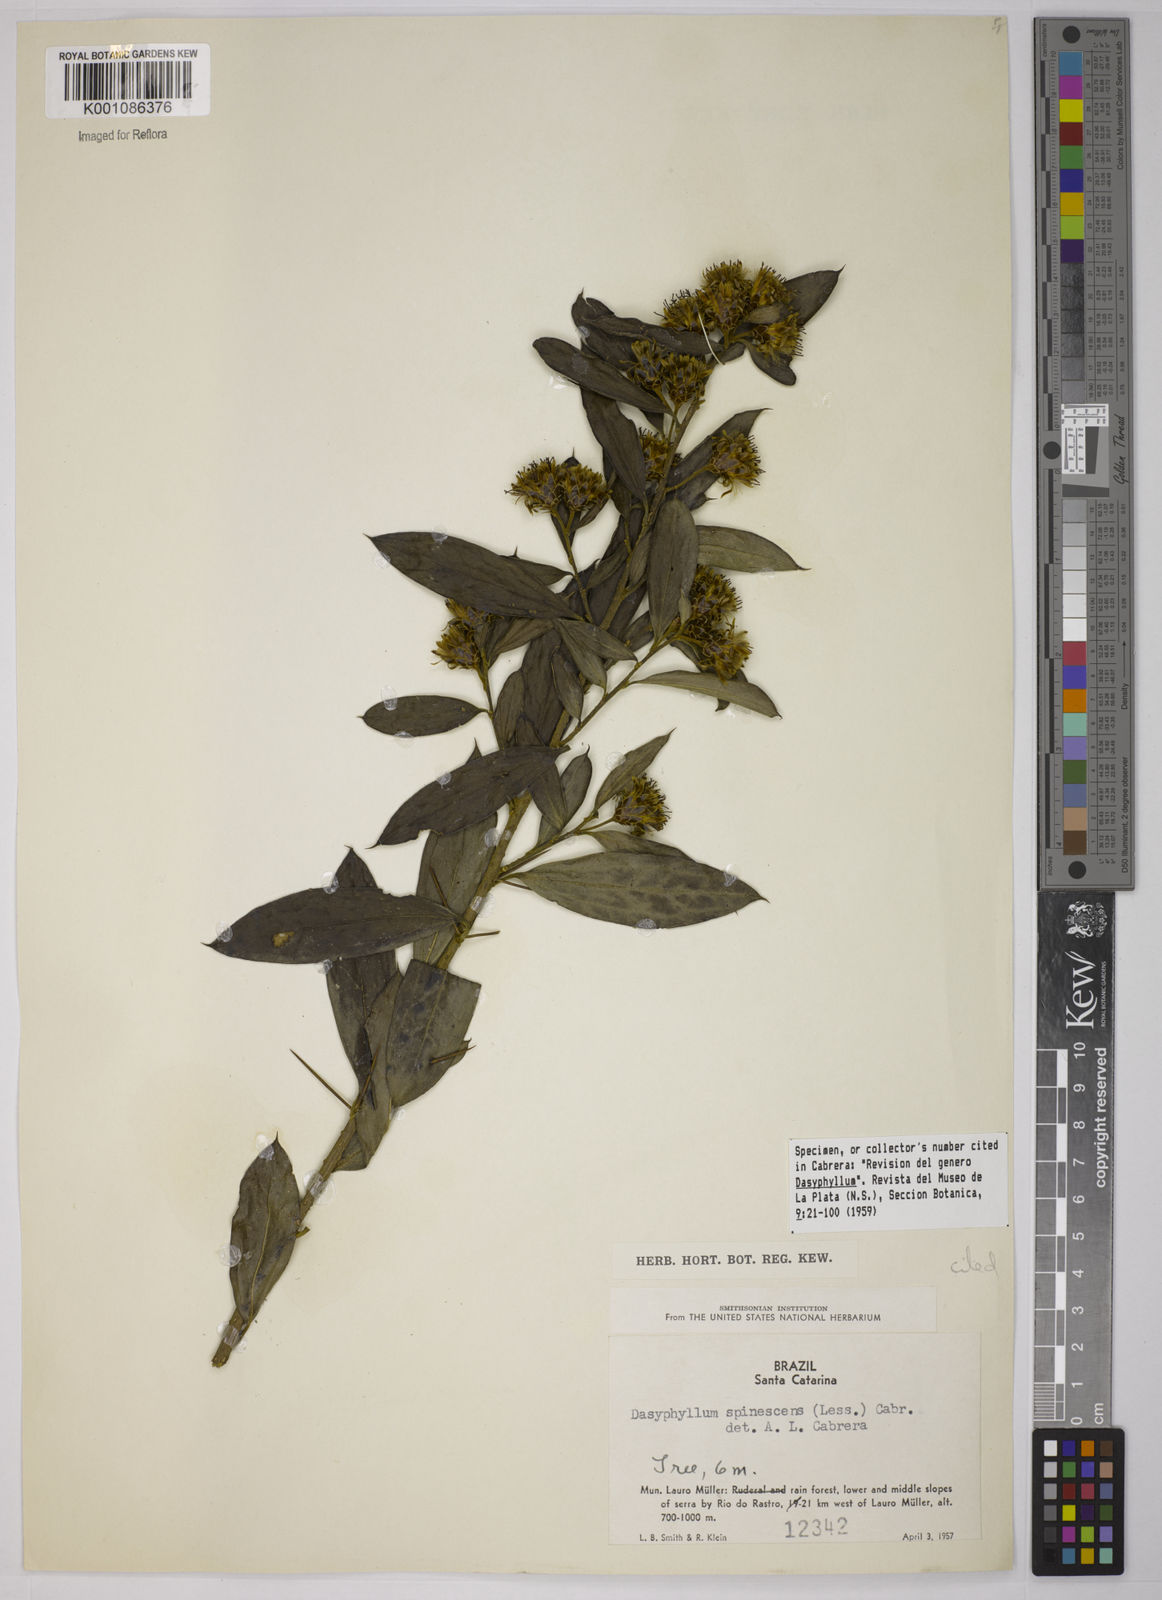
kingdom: Plantae
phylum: Tracheophyta
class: Magnoliopsida
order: Asterales
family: Asteraceae
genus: Dasyphyllum
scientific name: Dasyphyllum spinescens
